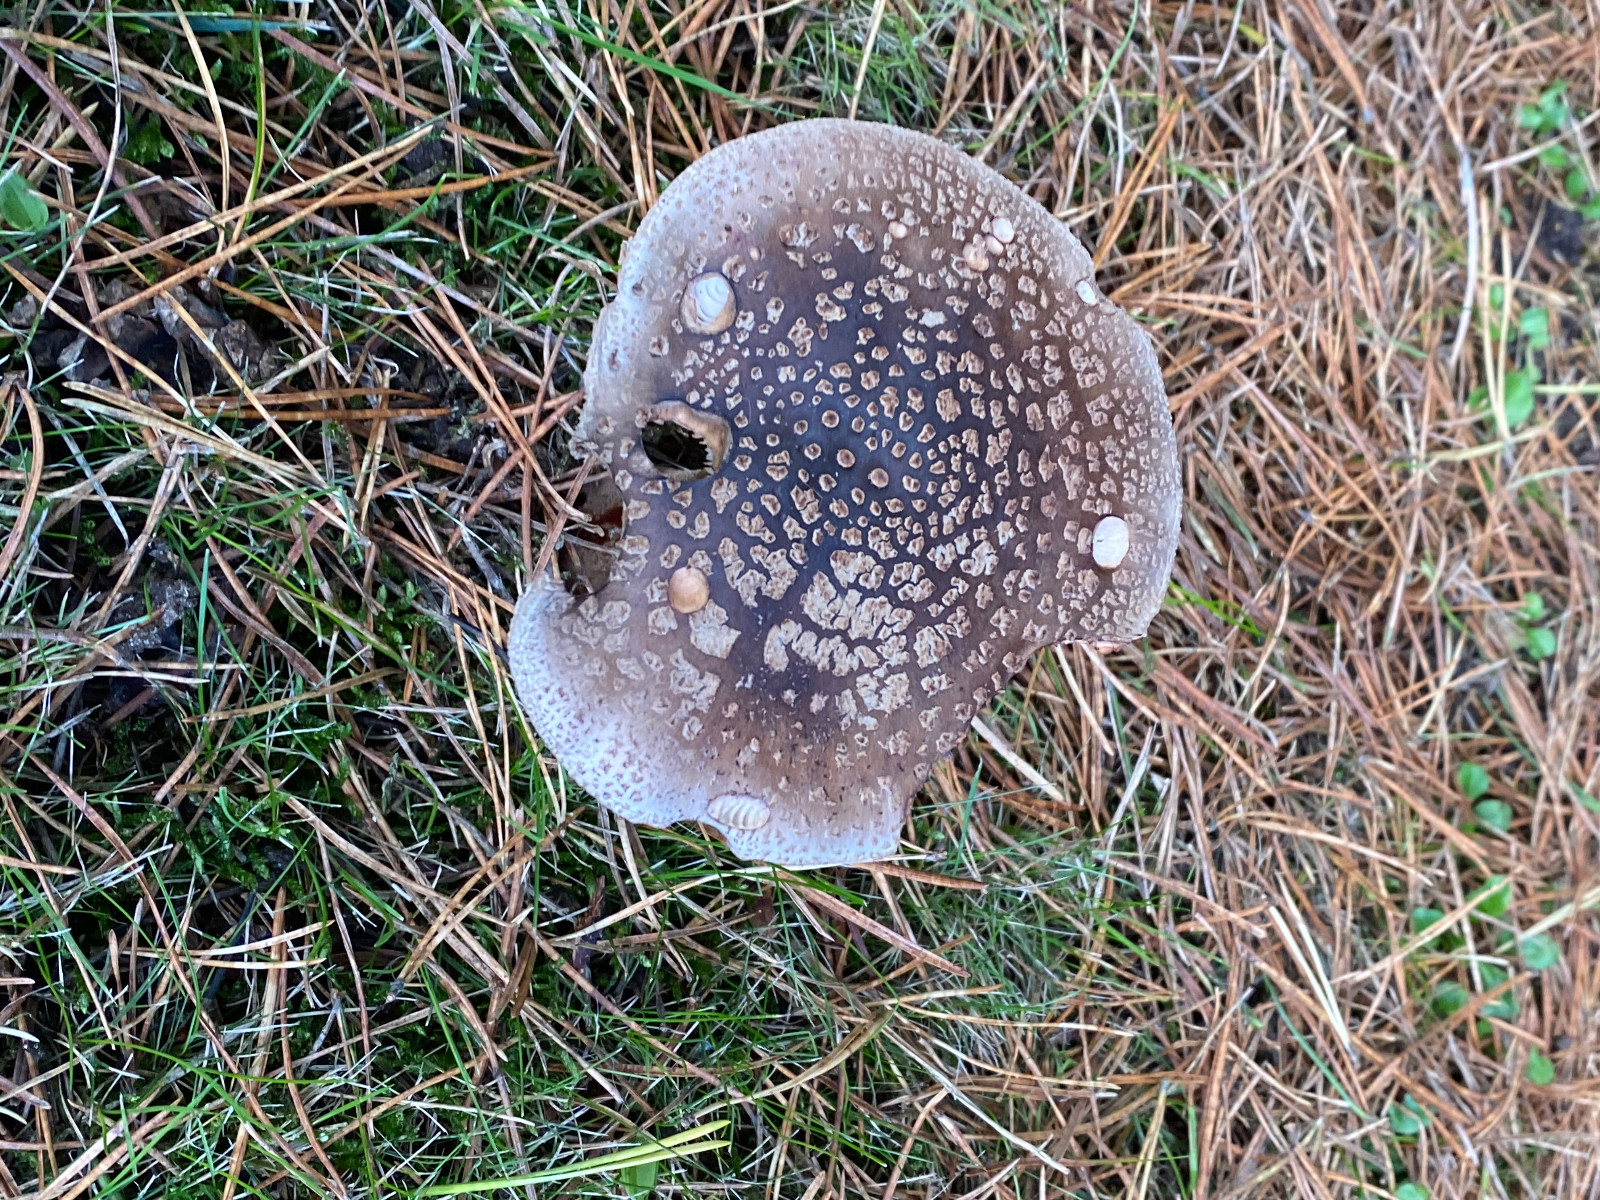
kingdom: Fungi
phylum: Basidiomycota
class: Agaricomycetes
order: Agaricales
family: Amanitaceae
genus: Amanita
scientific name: Amanita rubescens
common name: rødmende fluesvamp
